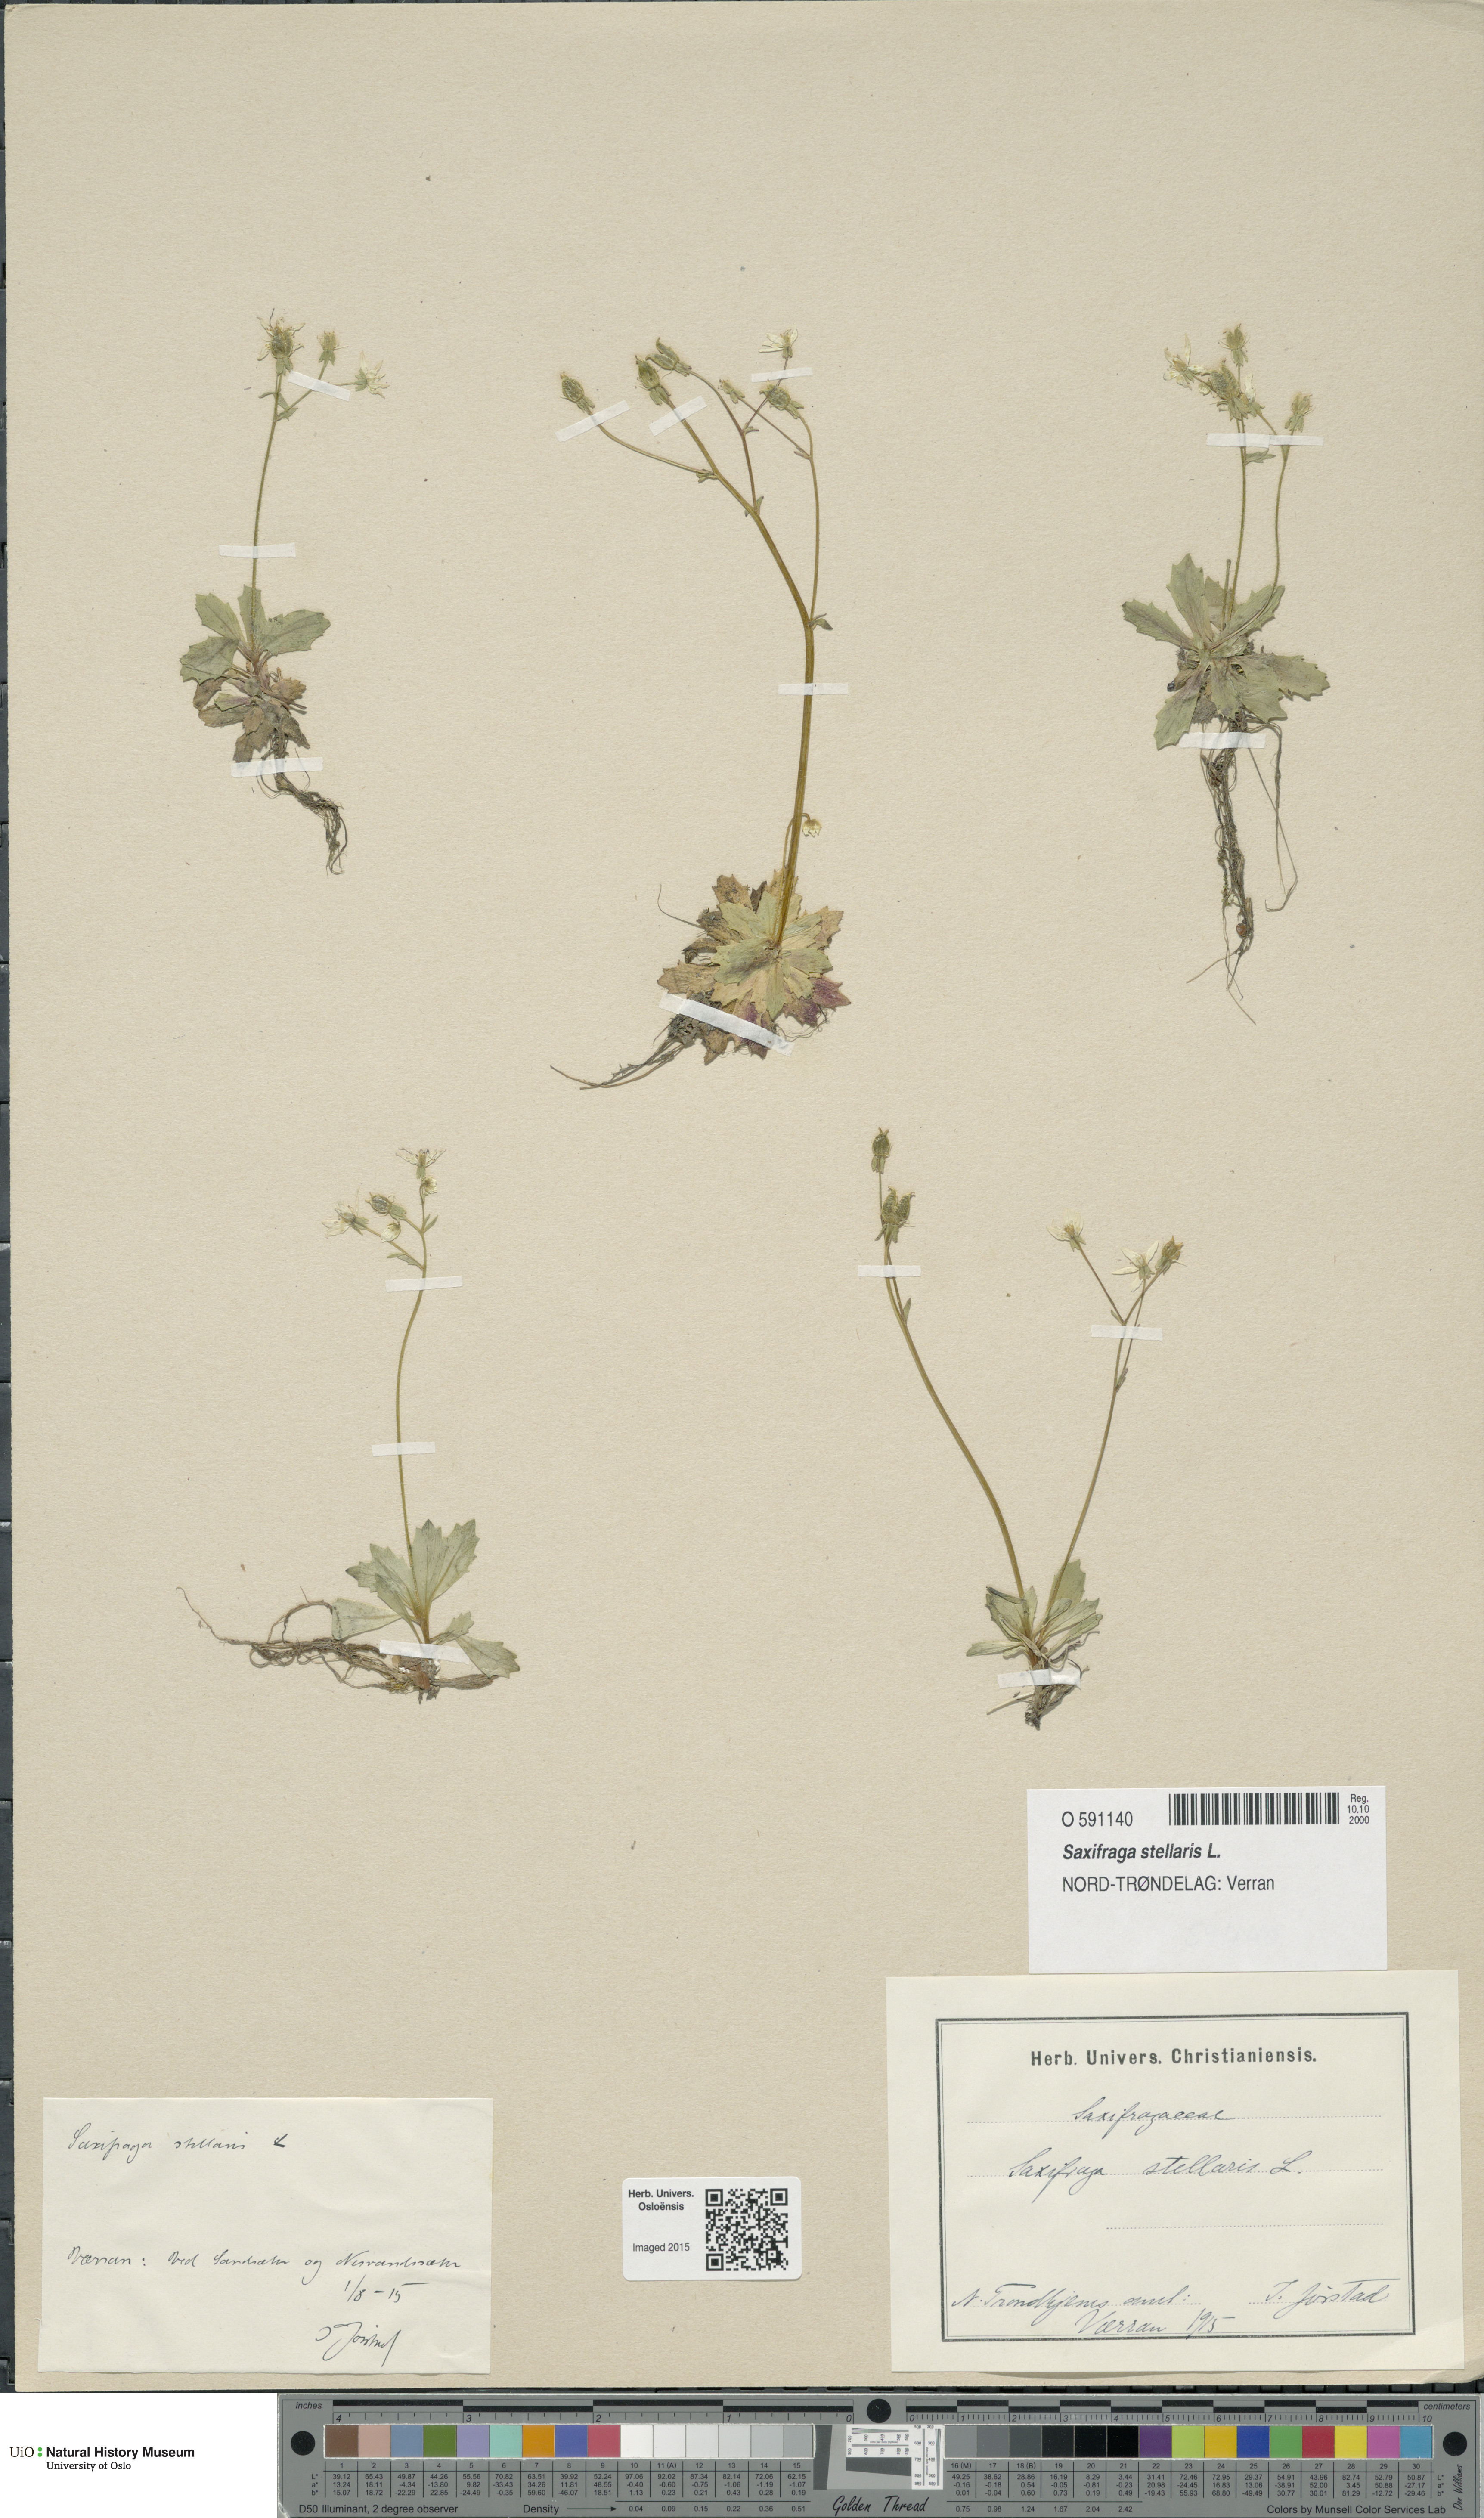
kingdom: Plantae
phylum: Tracheophyta
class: Magnoliopsida
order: Saxifragales
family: Saxifragaceae
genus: Micranthes
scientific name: Micranthes stellaris
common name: Starry saxifrage
